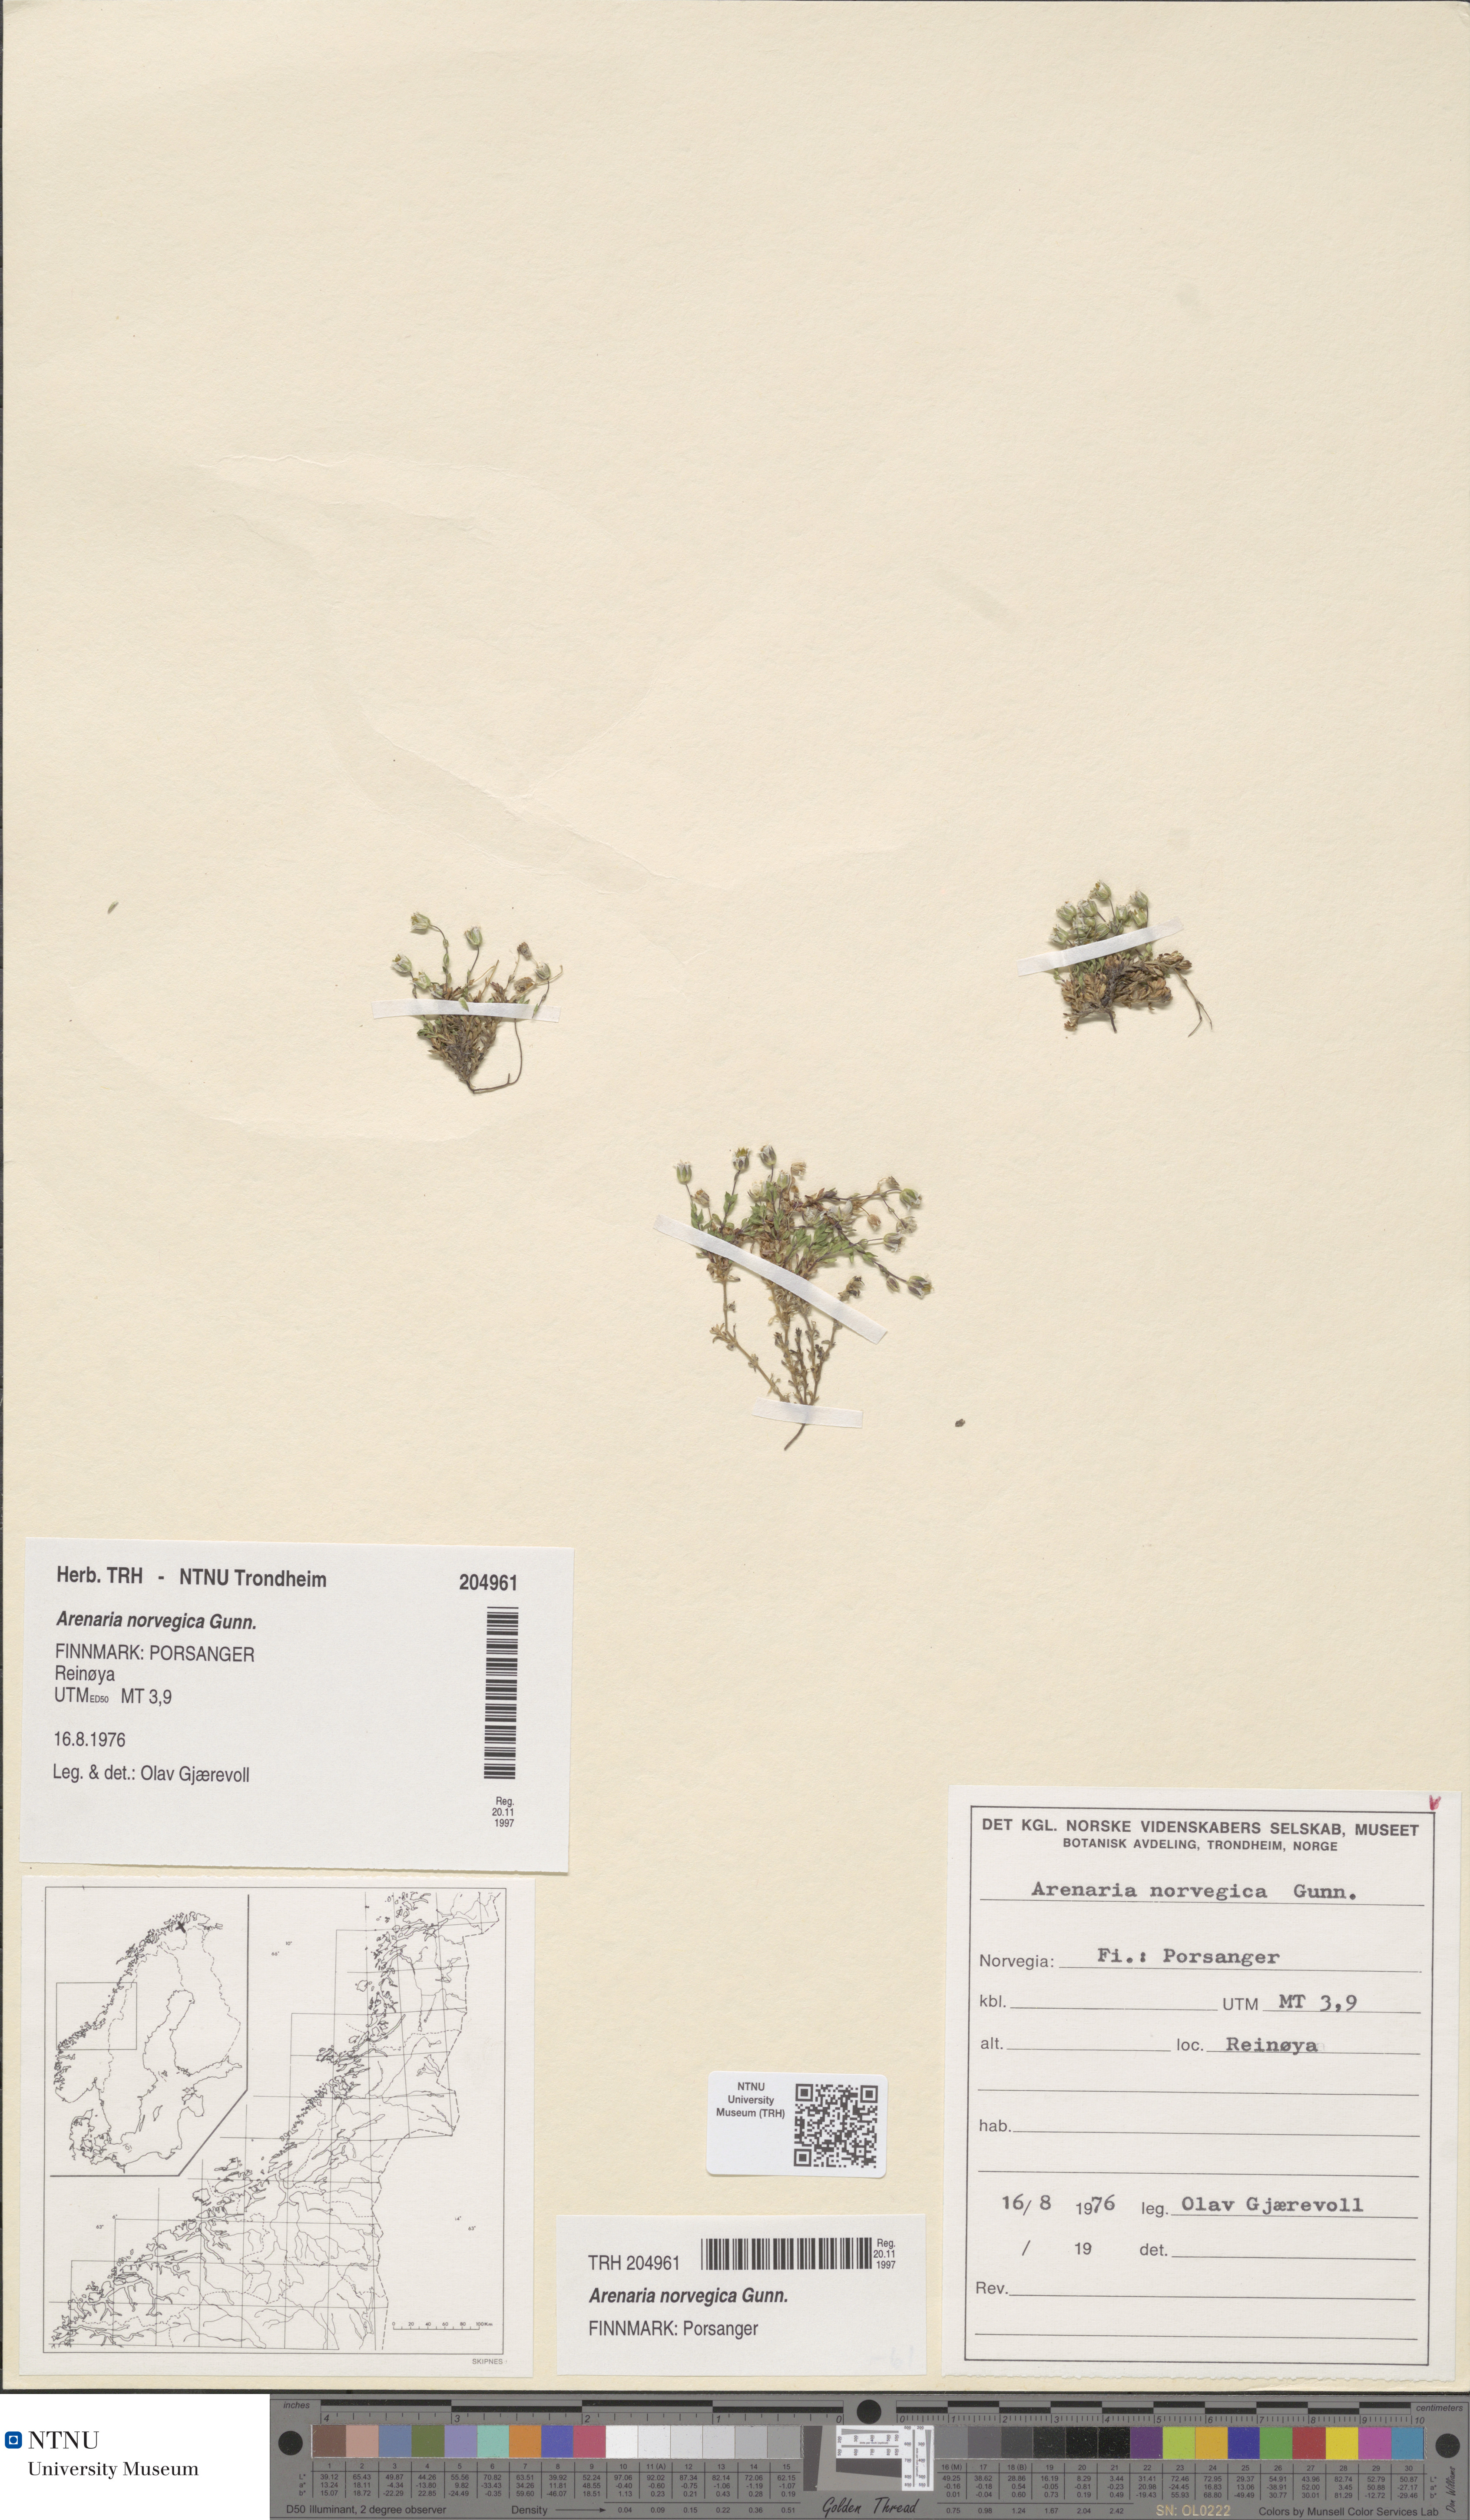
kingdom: Plantae
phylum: Tracheophyta
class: Magnoliopsida
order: Caryophyllales
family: Caryophyllaceae
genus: Arenaria
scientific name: Arenaria norvegica
